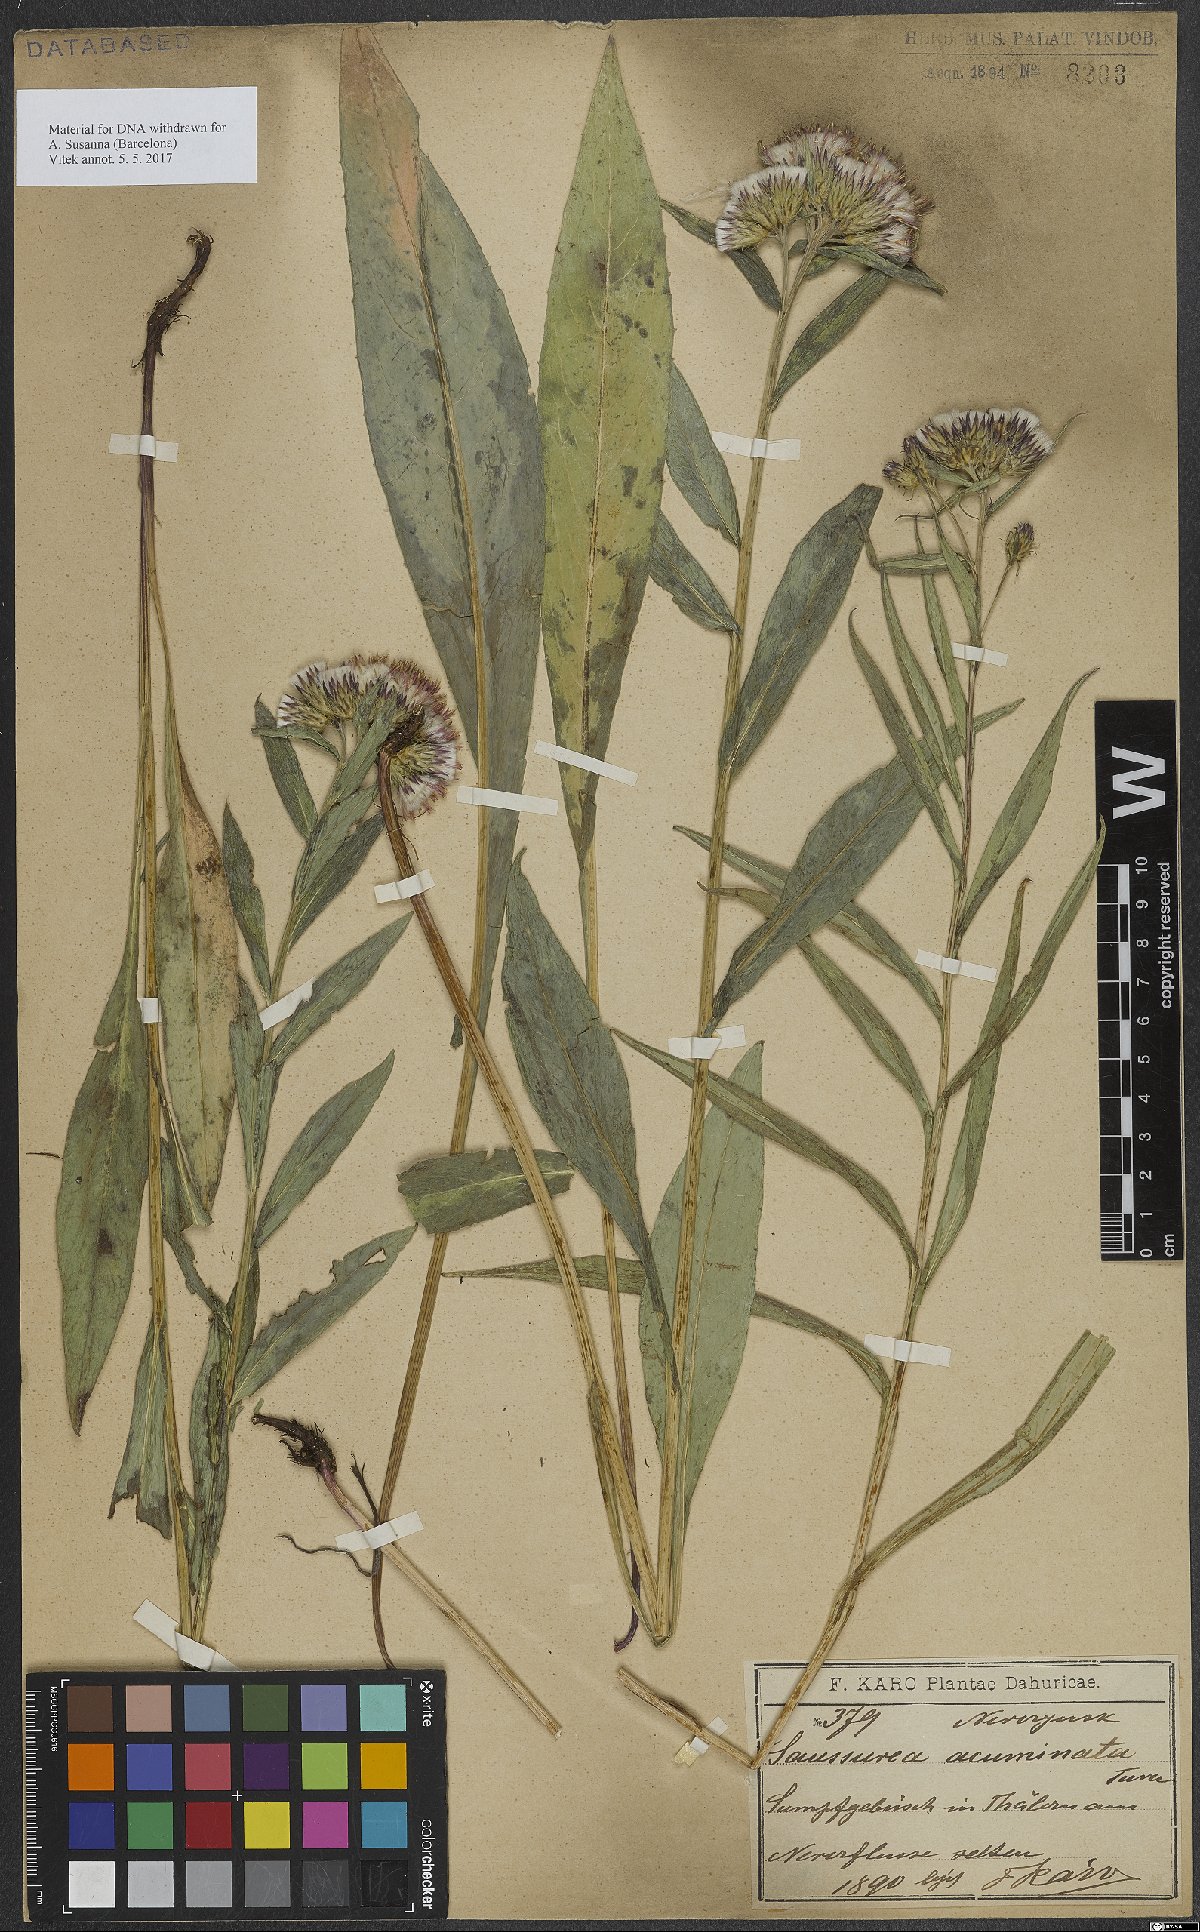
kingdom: Plantae
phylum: Tracheophyta
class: Magnoliopsida
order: Asterales
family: Asteraceae
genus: Saussurea
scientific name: Saussurea acuminata
